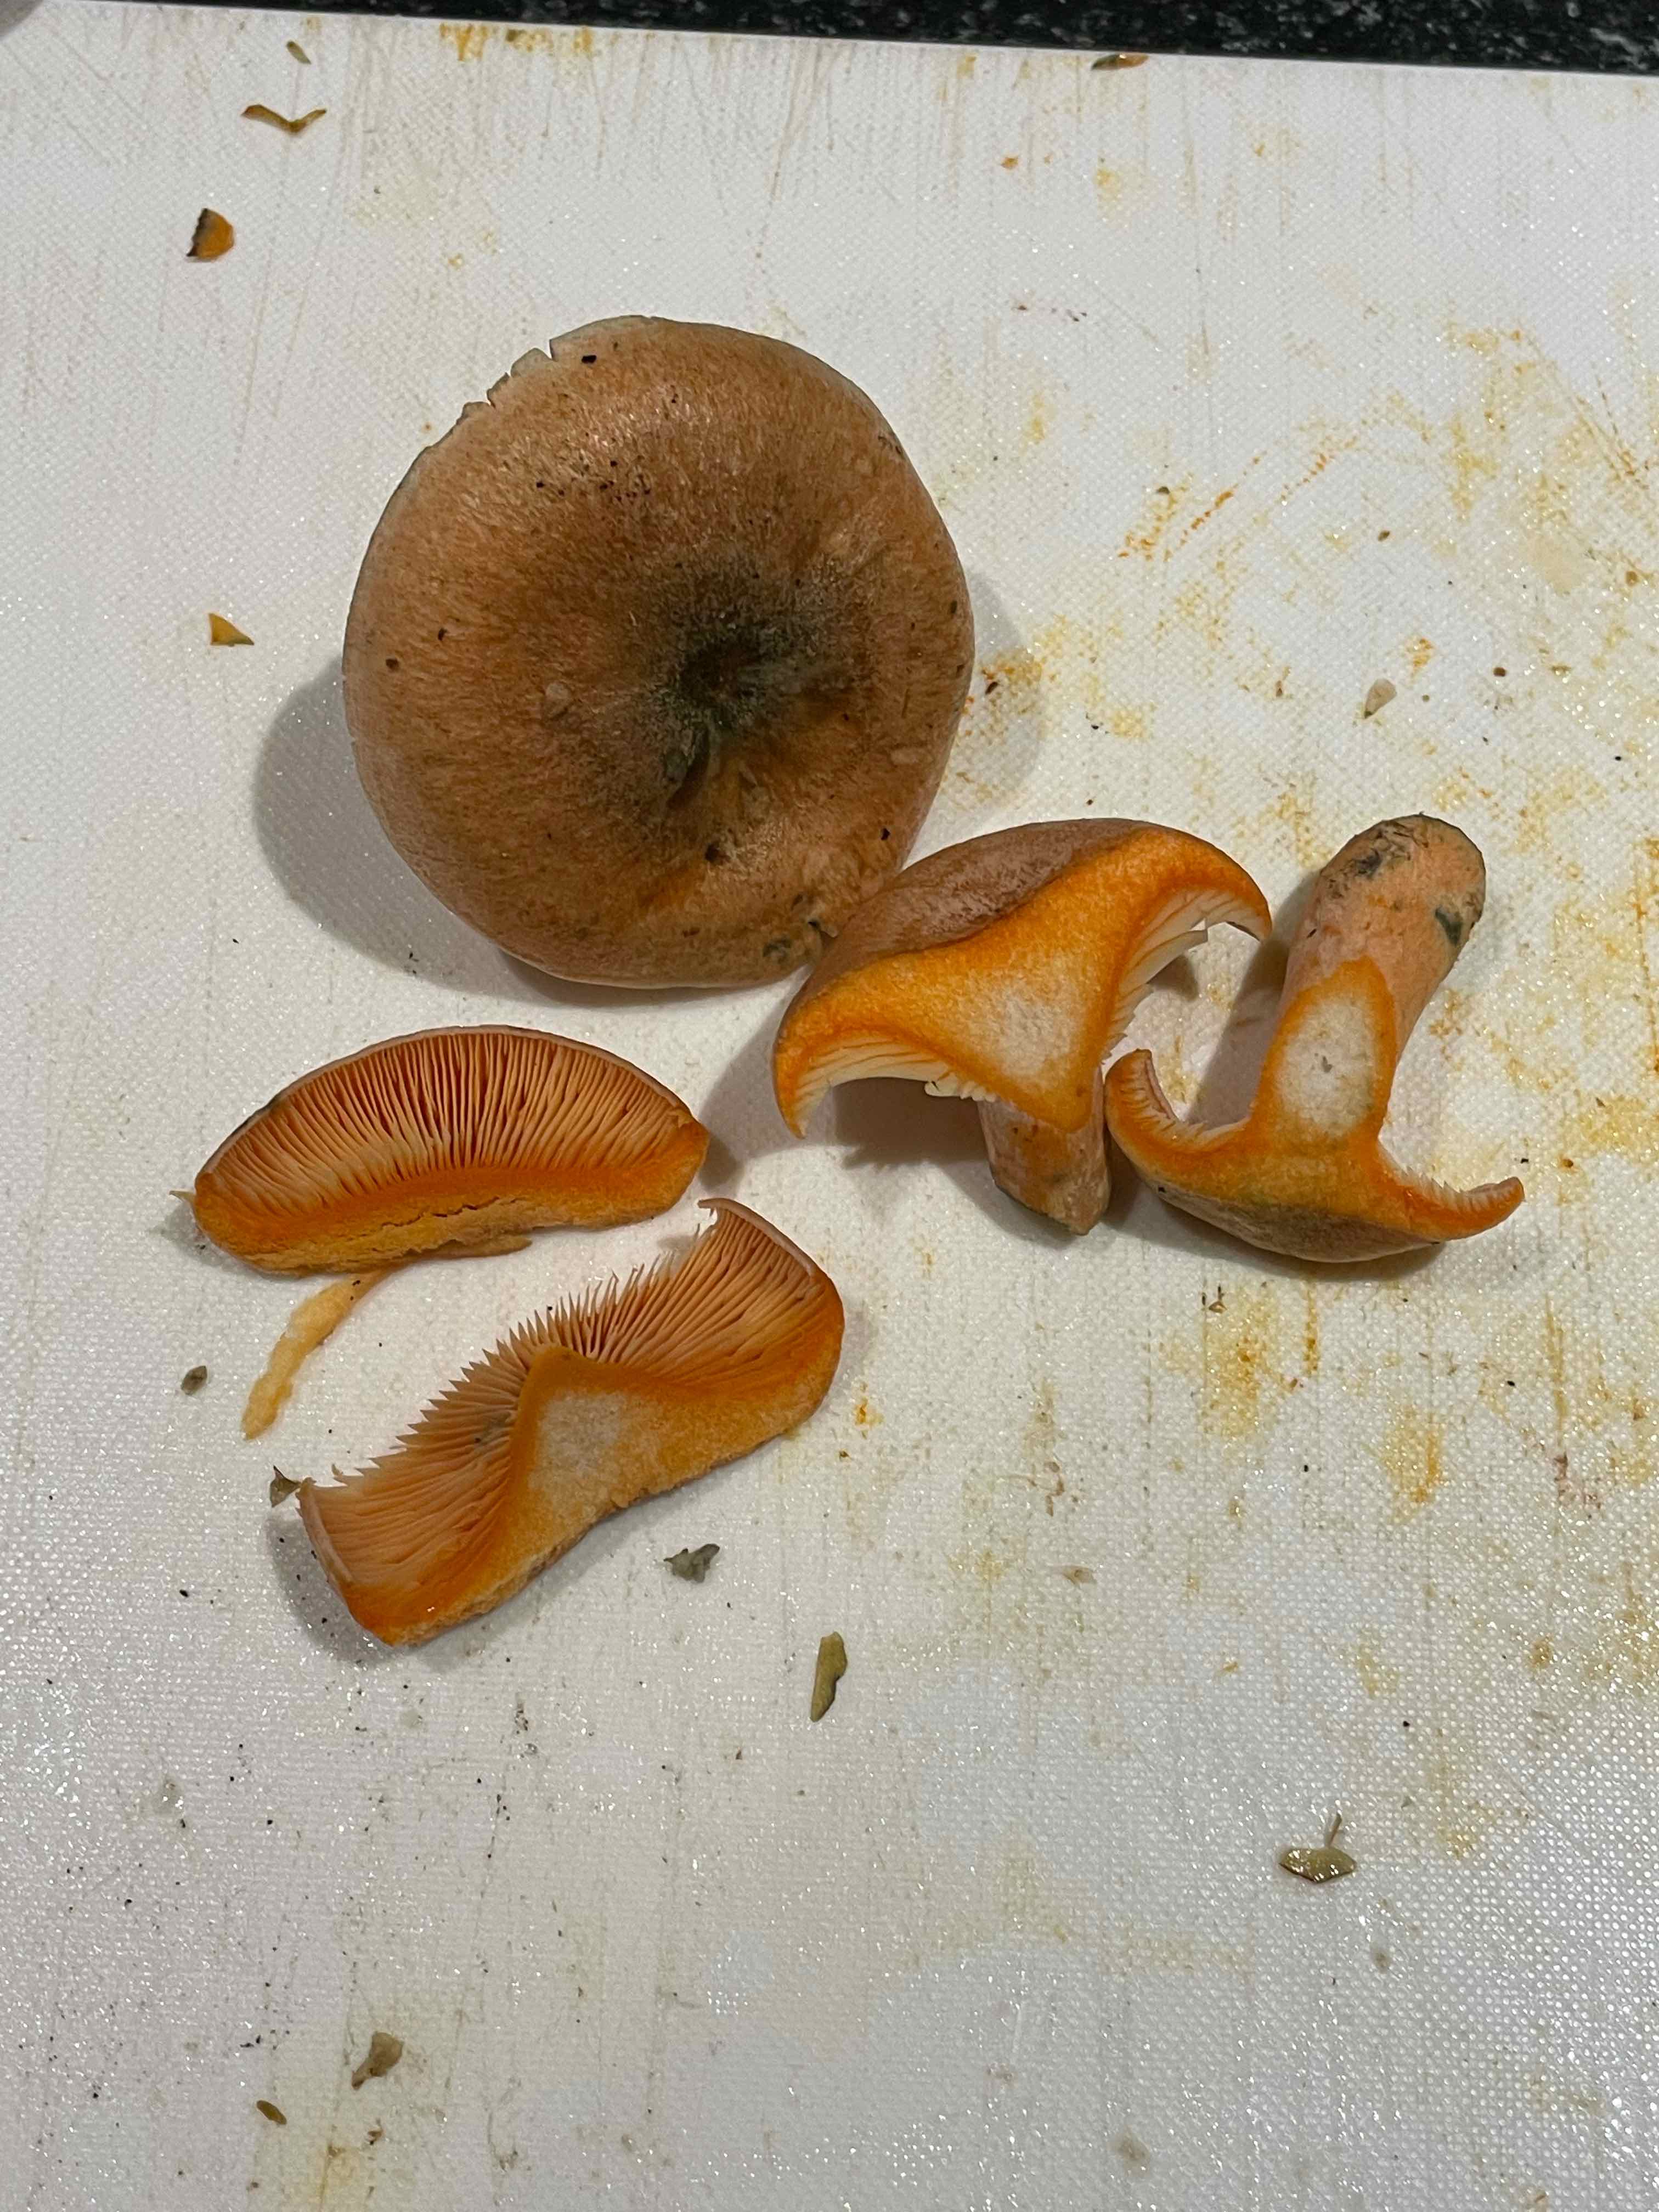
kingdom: Fungi
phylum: Basidiomycota
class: Agaricomycetes
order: Russulales
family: Russulaceae
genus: Lactarius
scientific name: Lactarius
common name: mælkehat
